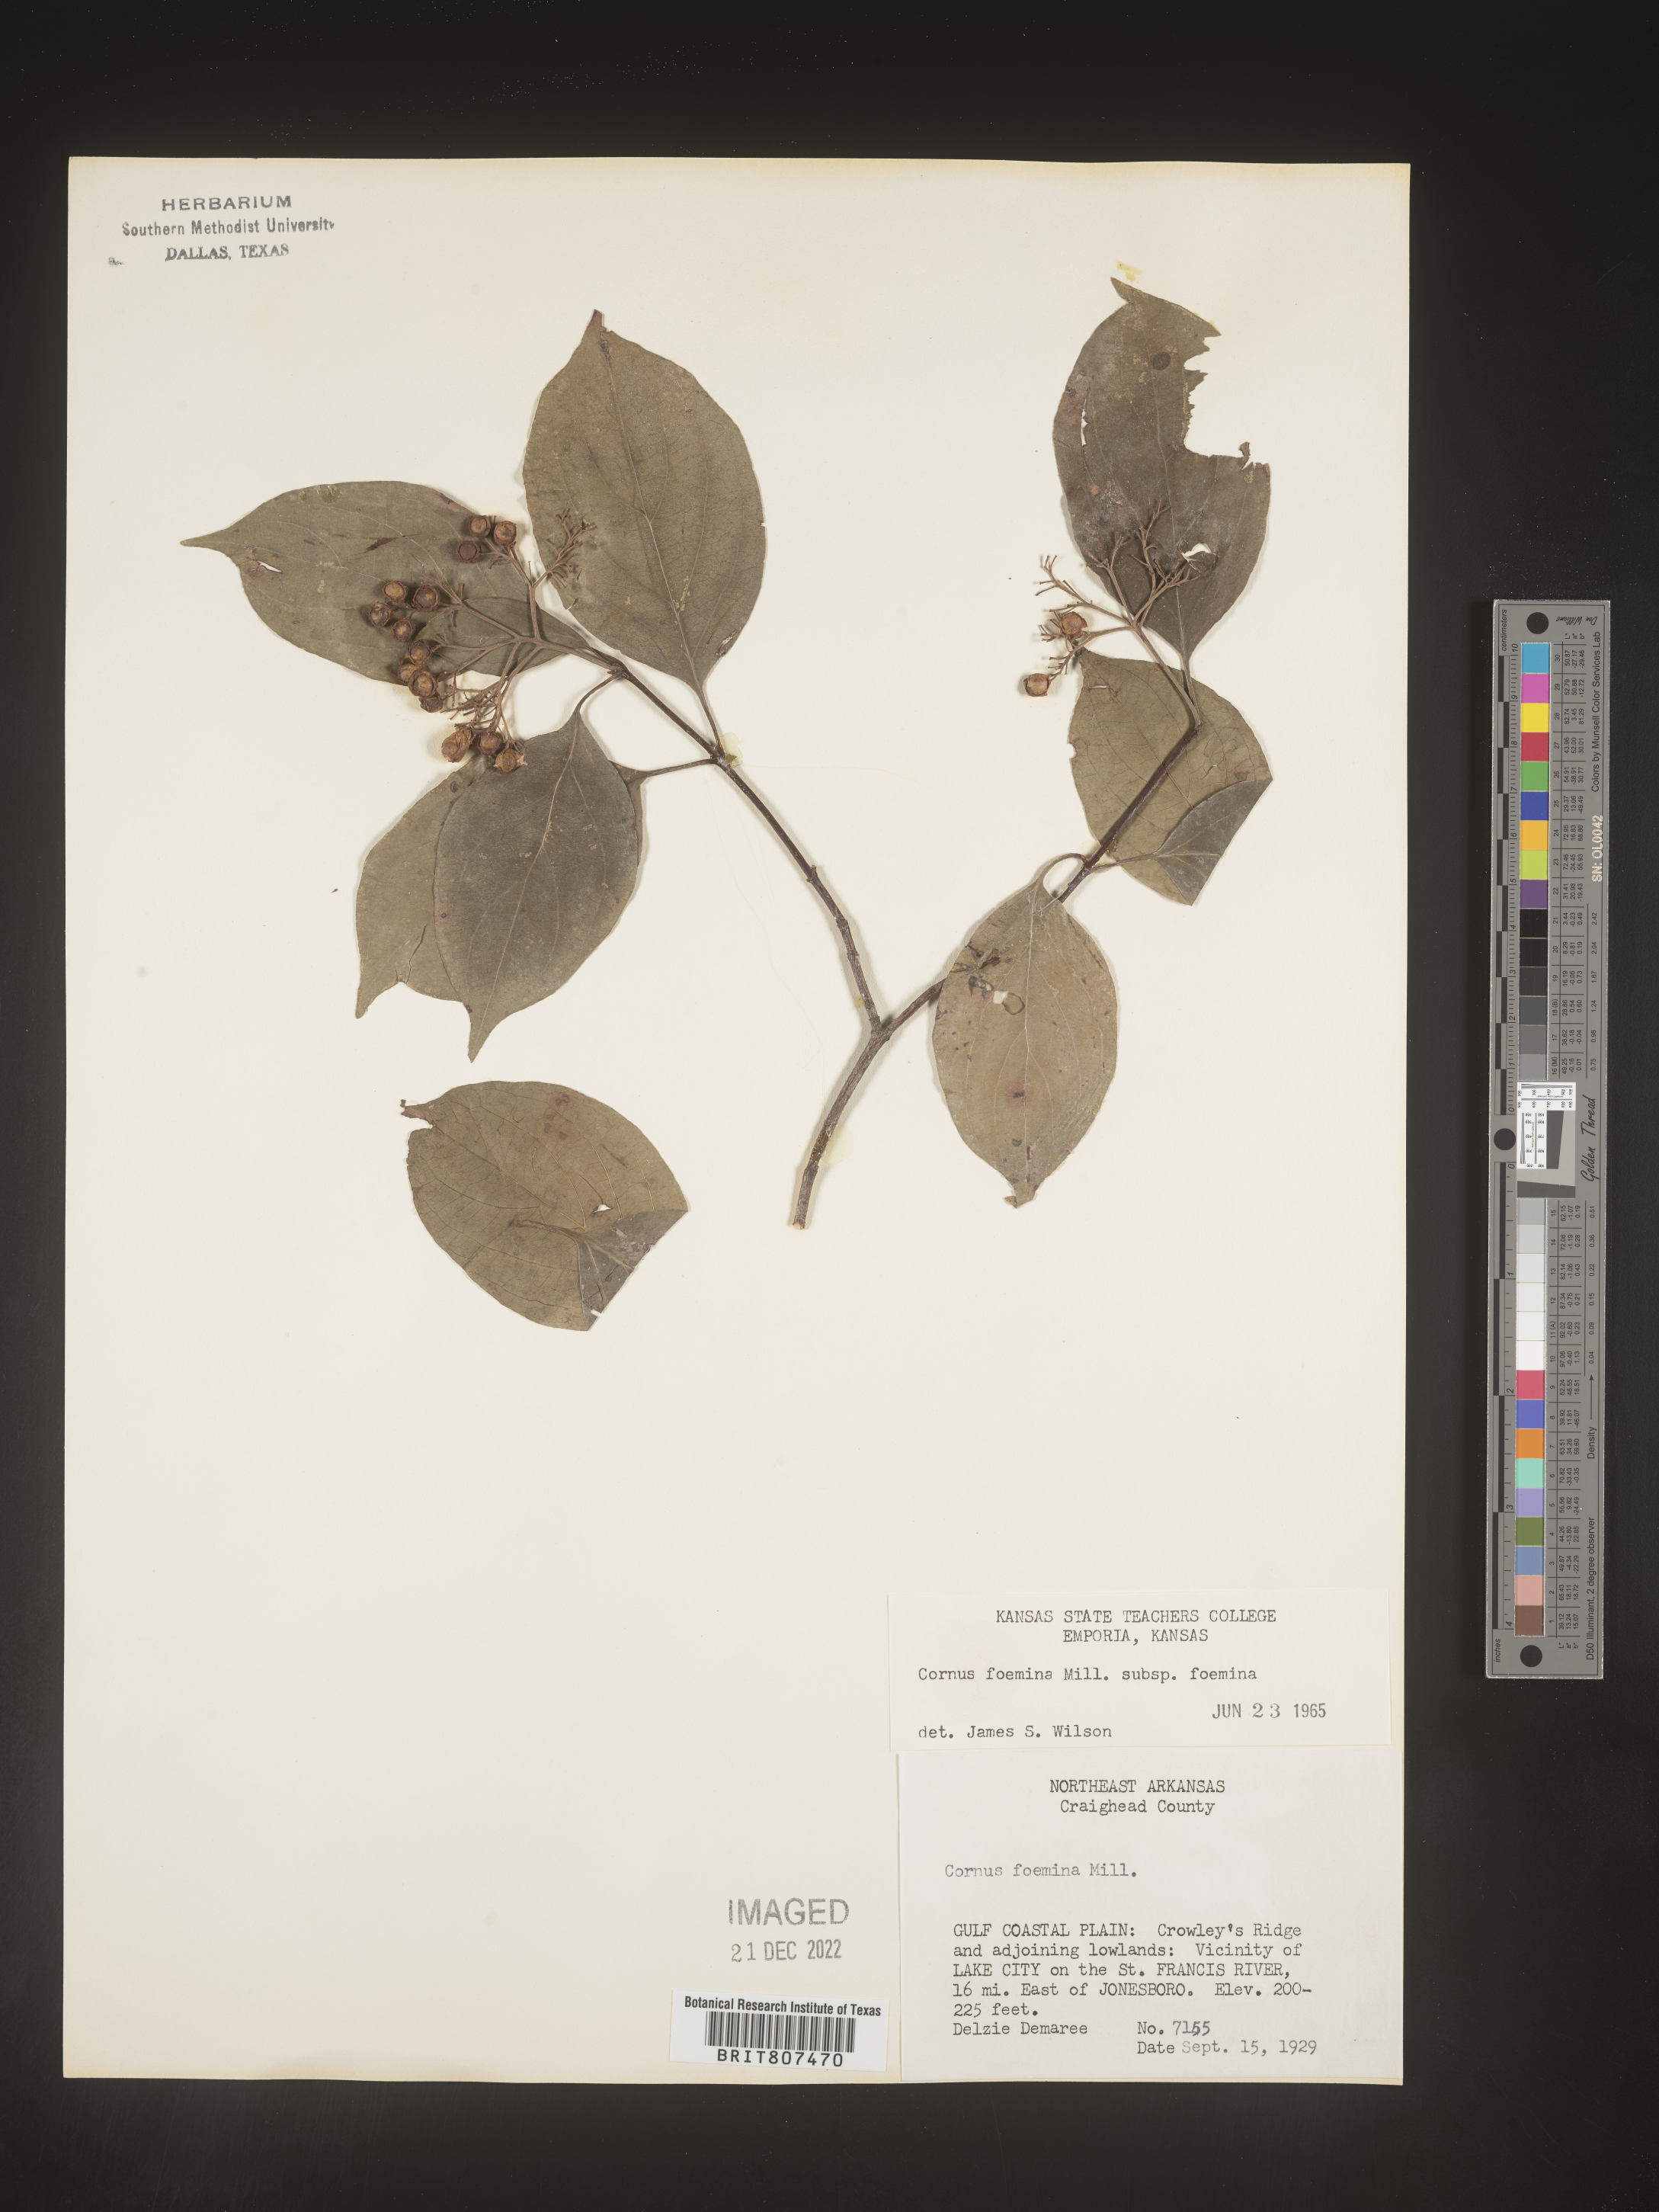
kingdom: Plantae
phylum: Tracheophyta
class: Magnoliopsida
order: Cornales
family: Cornaceae
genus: Cornus
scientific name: Cornus foemina
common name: Swamp dogwood
